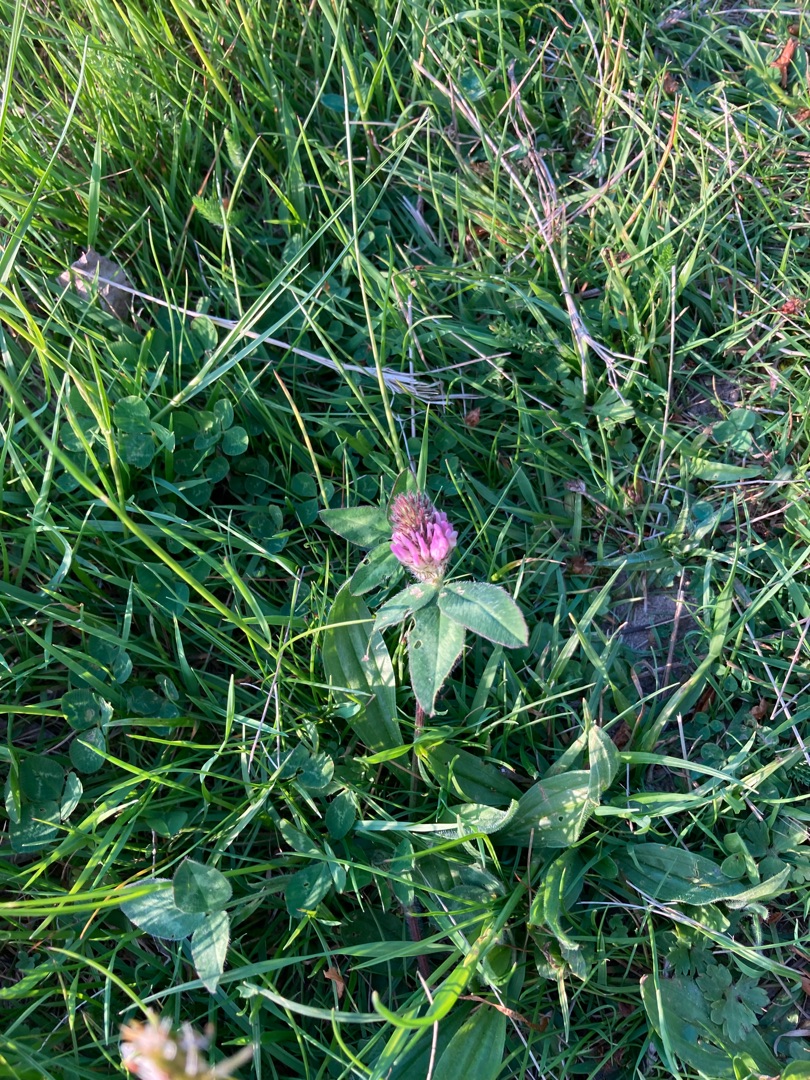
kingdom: Plantae
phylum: Tracheophyta
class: Magnoliopsida
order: Fabales
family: Fabaceae
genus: Trifolium
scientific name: Trifolium pratense
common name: Rød-kløver
